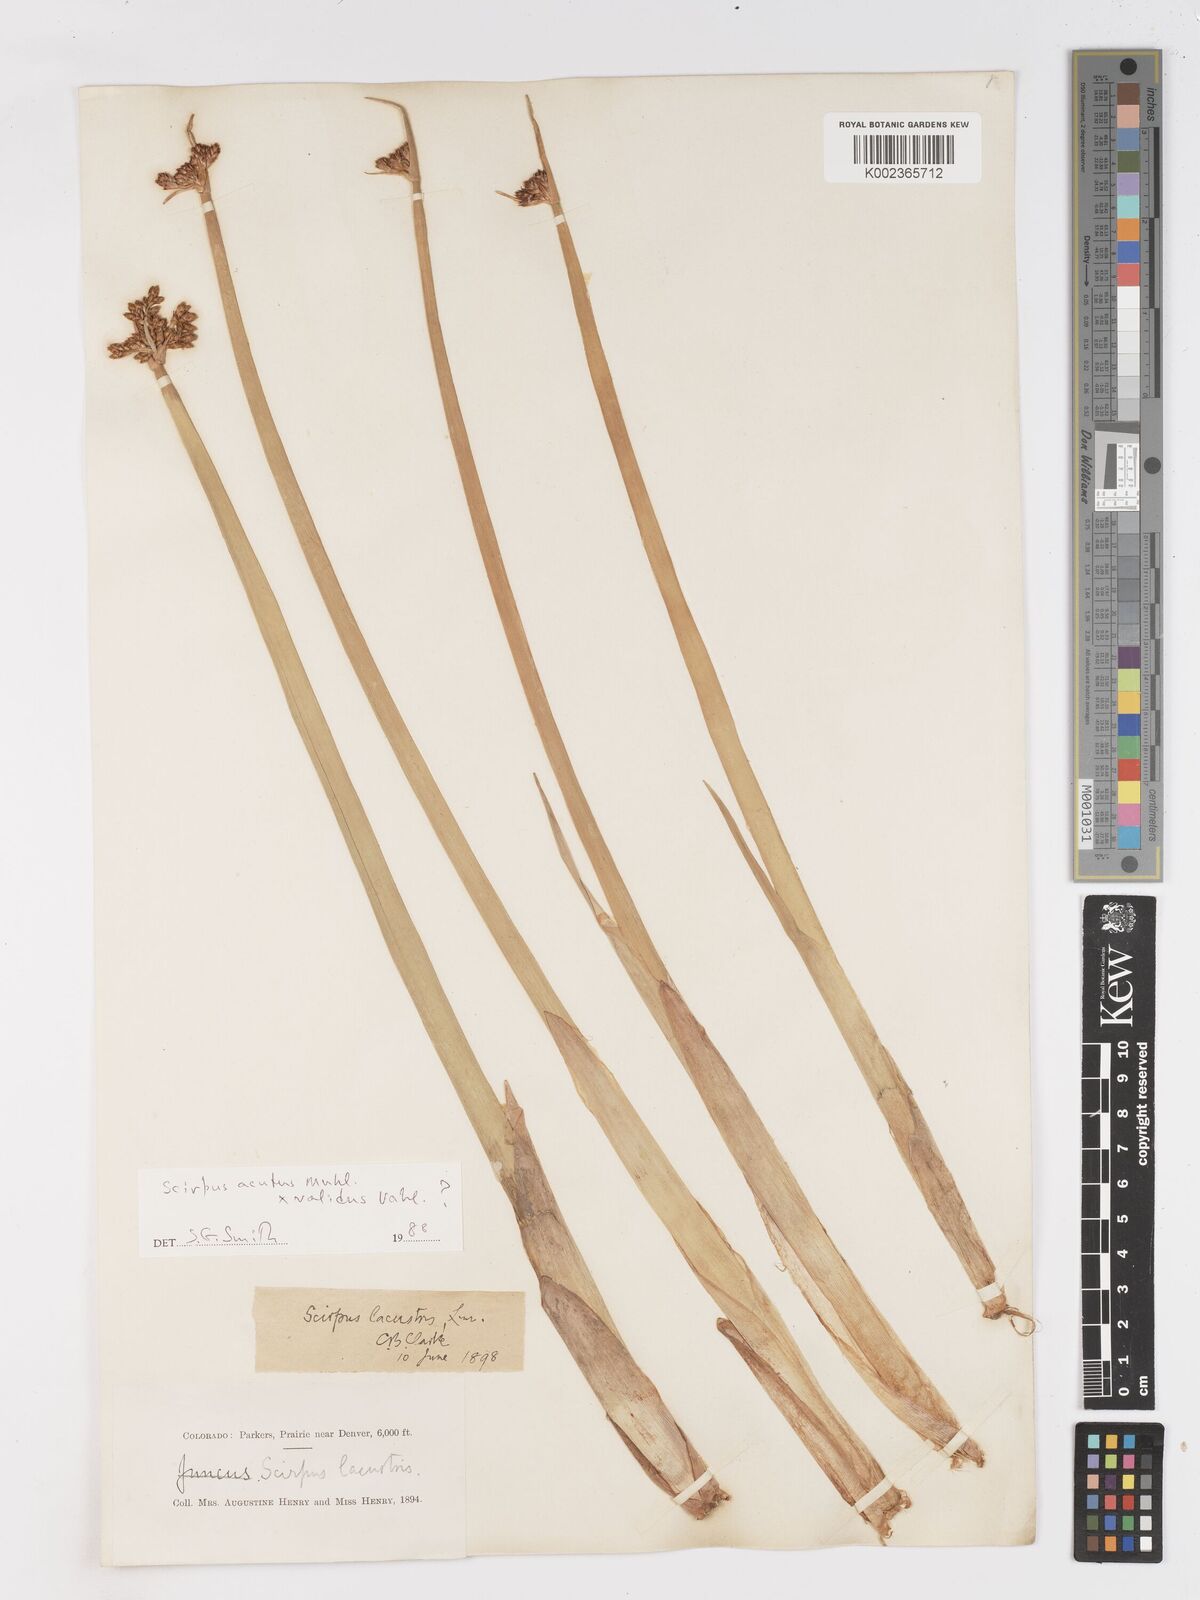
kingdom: Plantae
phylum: Tracheophyta
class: Liliopsida
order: Poales
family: Cyperaceae
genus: Schoenoplectus
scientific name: Schoenoplectus acutus
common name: Hardstem bulrush
